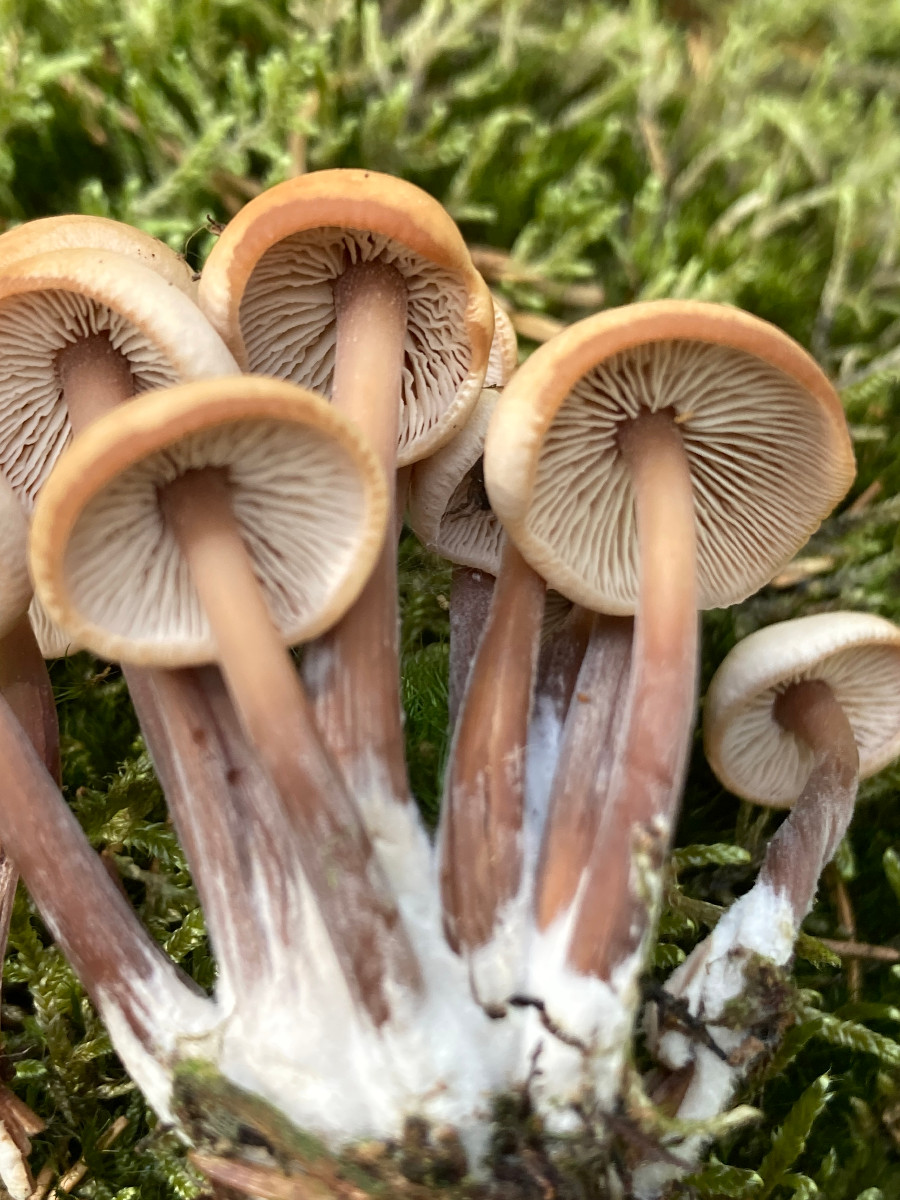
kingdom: Fungi
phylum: Basidiomycota
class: Agaricomycetes
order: Agaricales
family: Omphalotaceae
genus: Connopus
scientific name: Connopus acervatus
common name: tue-fladhat
